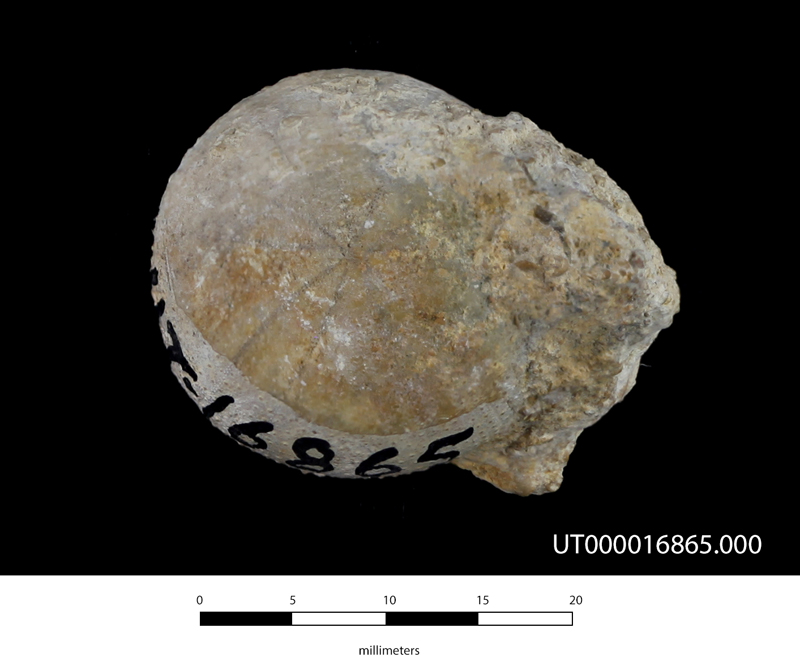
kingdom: Animalia
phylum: Echinodermata
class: Echinoidea
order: Holectypoida
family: Coenholectypidae
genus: Coenholectypus
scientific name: Coenholectypus planatus
